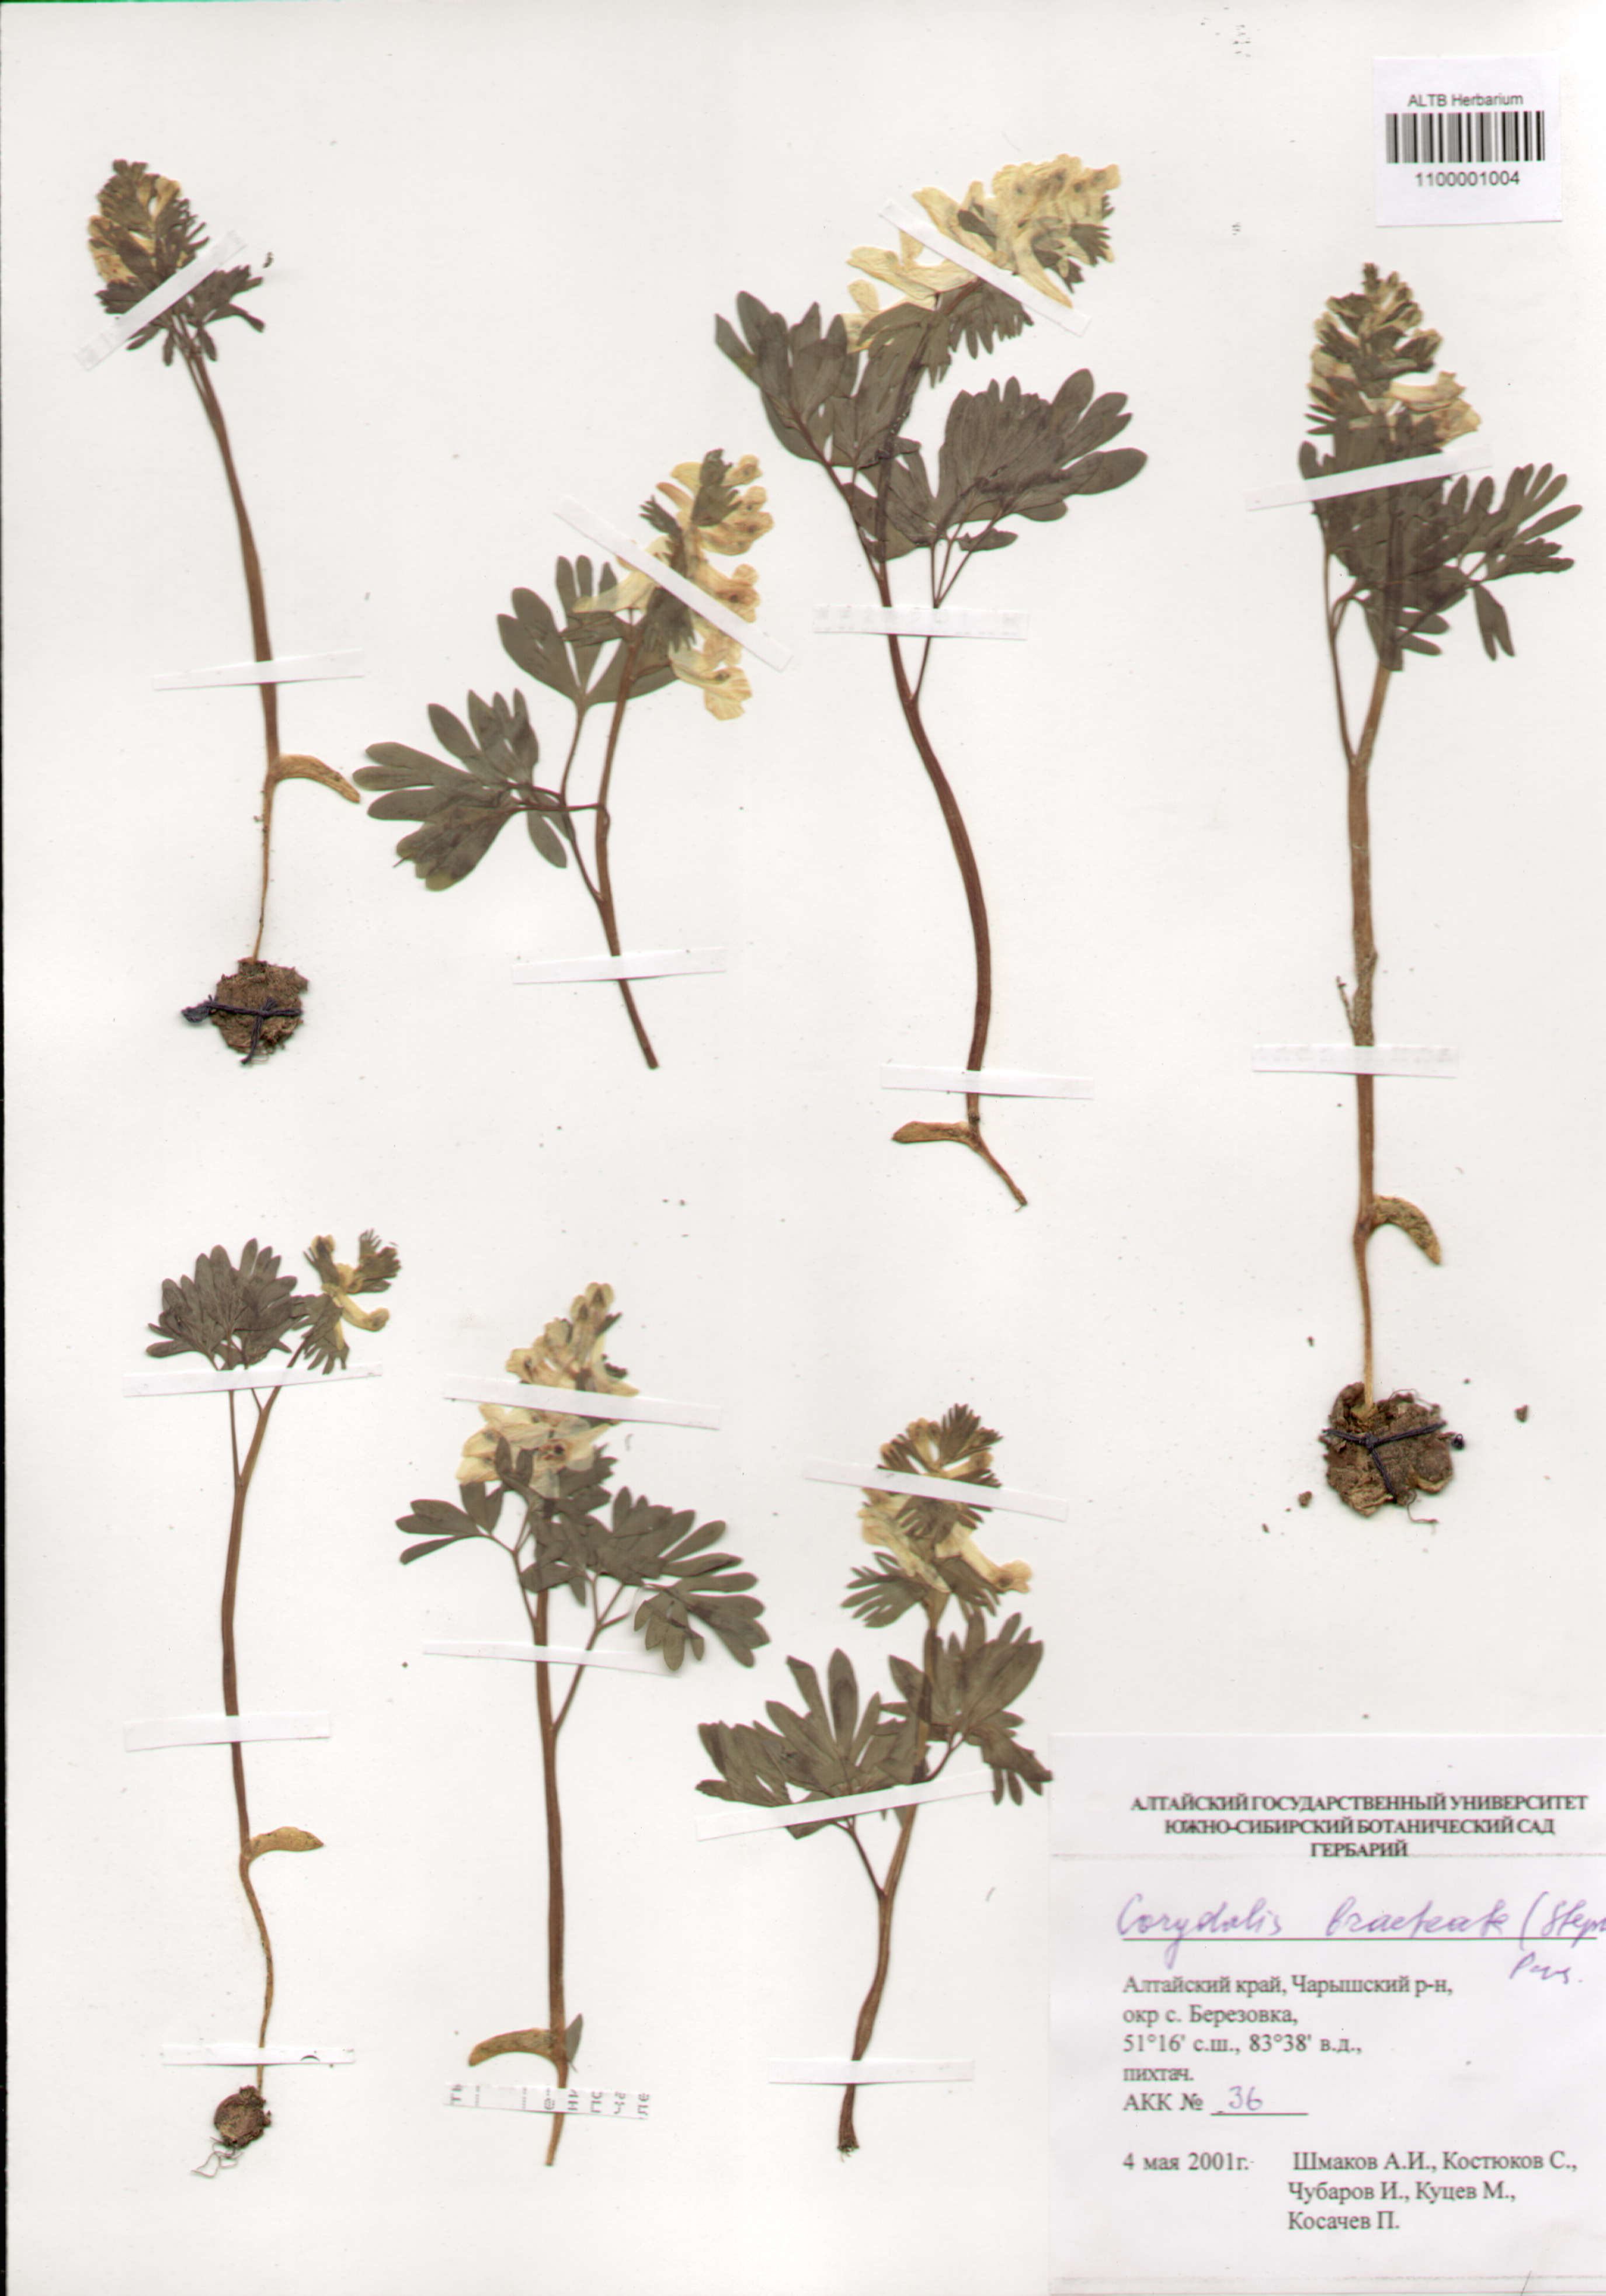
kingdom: Plantae
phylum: Tracheophyta
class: Magnoliopsida
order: Ranunculales
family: Papaveraceae
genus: Corydalis
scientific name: Corydalis bracteata
